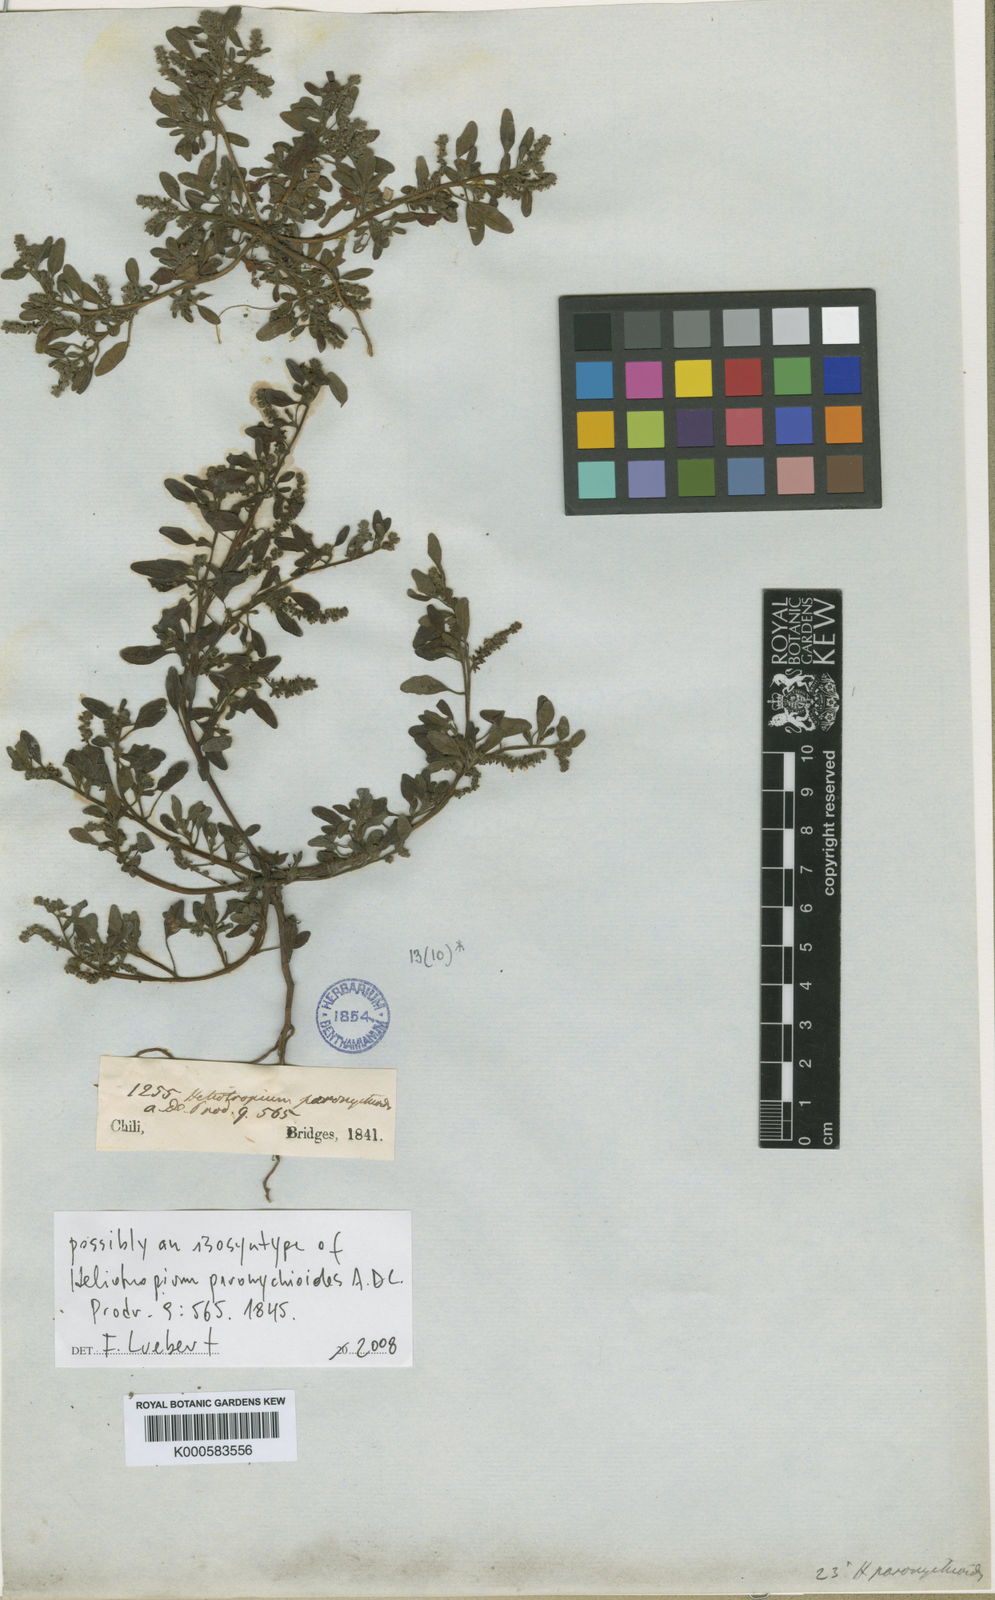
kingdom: Plantae
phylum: Tracheophyta
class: Magnoliopsida
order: Boraginales
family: Heliotropiaceae
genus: Heliotropium
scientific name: Heliotropium paronychioides
